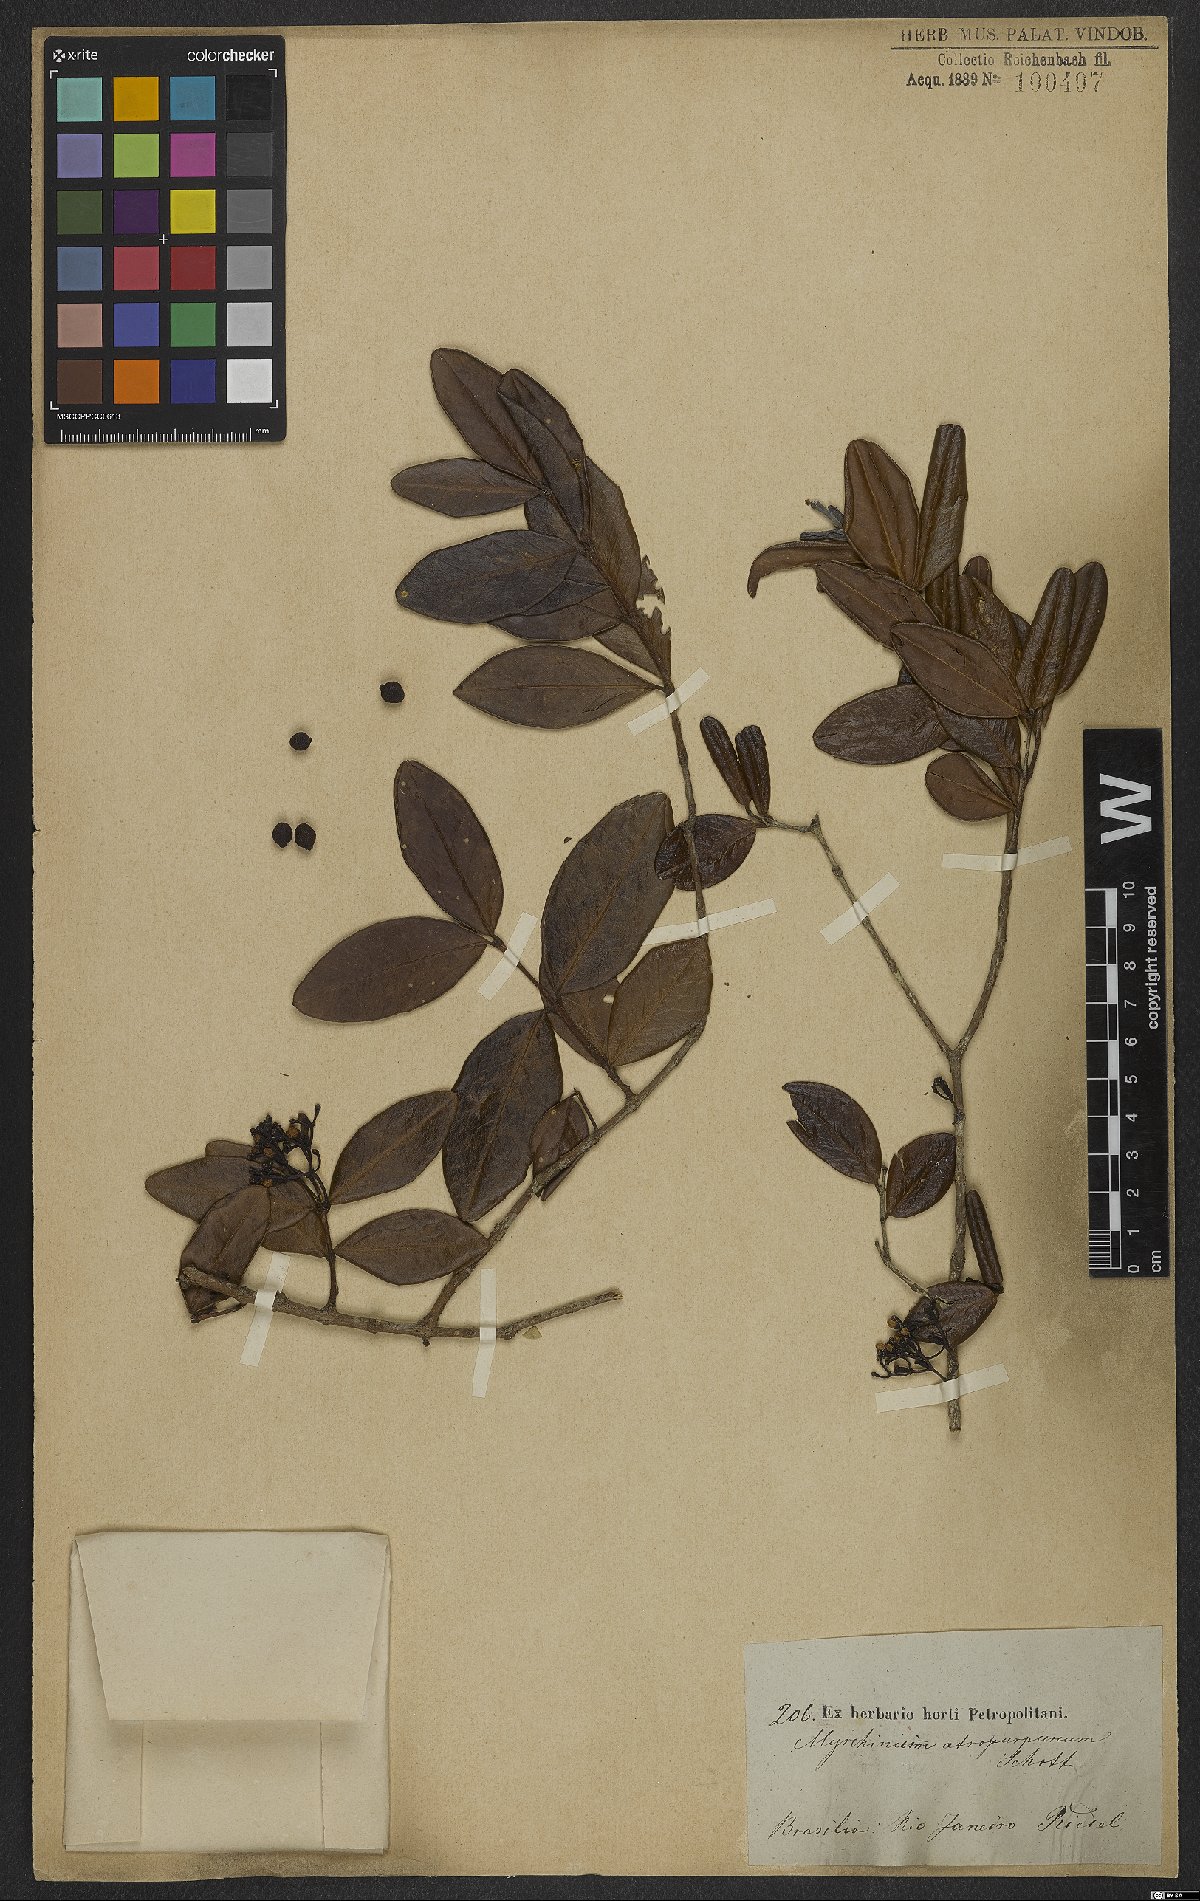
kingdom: Plantae
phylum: Tracheophyta
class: Magnoliopsida
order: Myrtales
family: Myrtaceae
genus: Myrrhinium
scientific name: Myrrhinium atropurpureum
